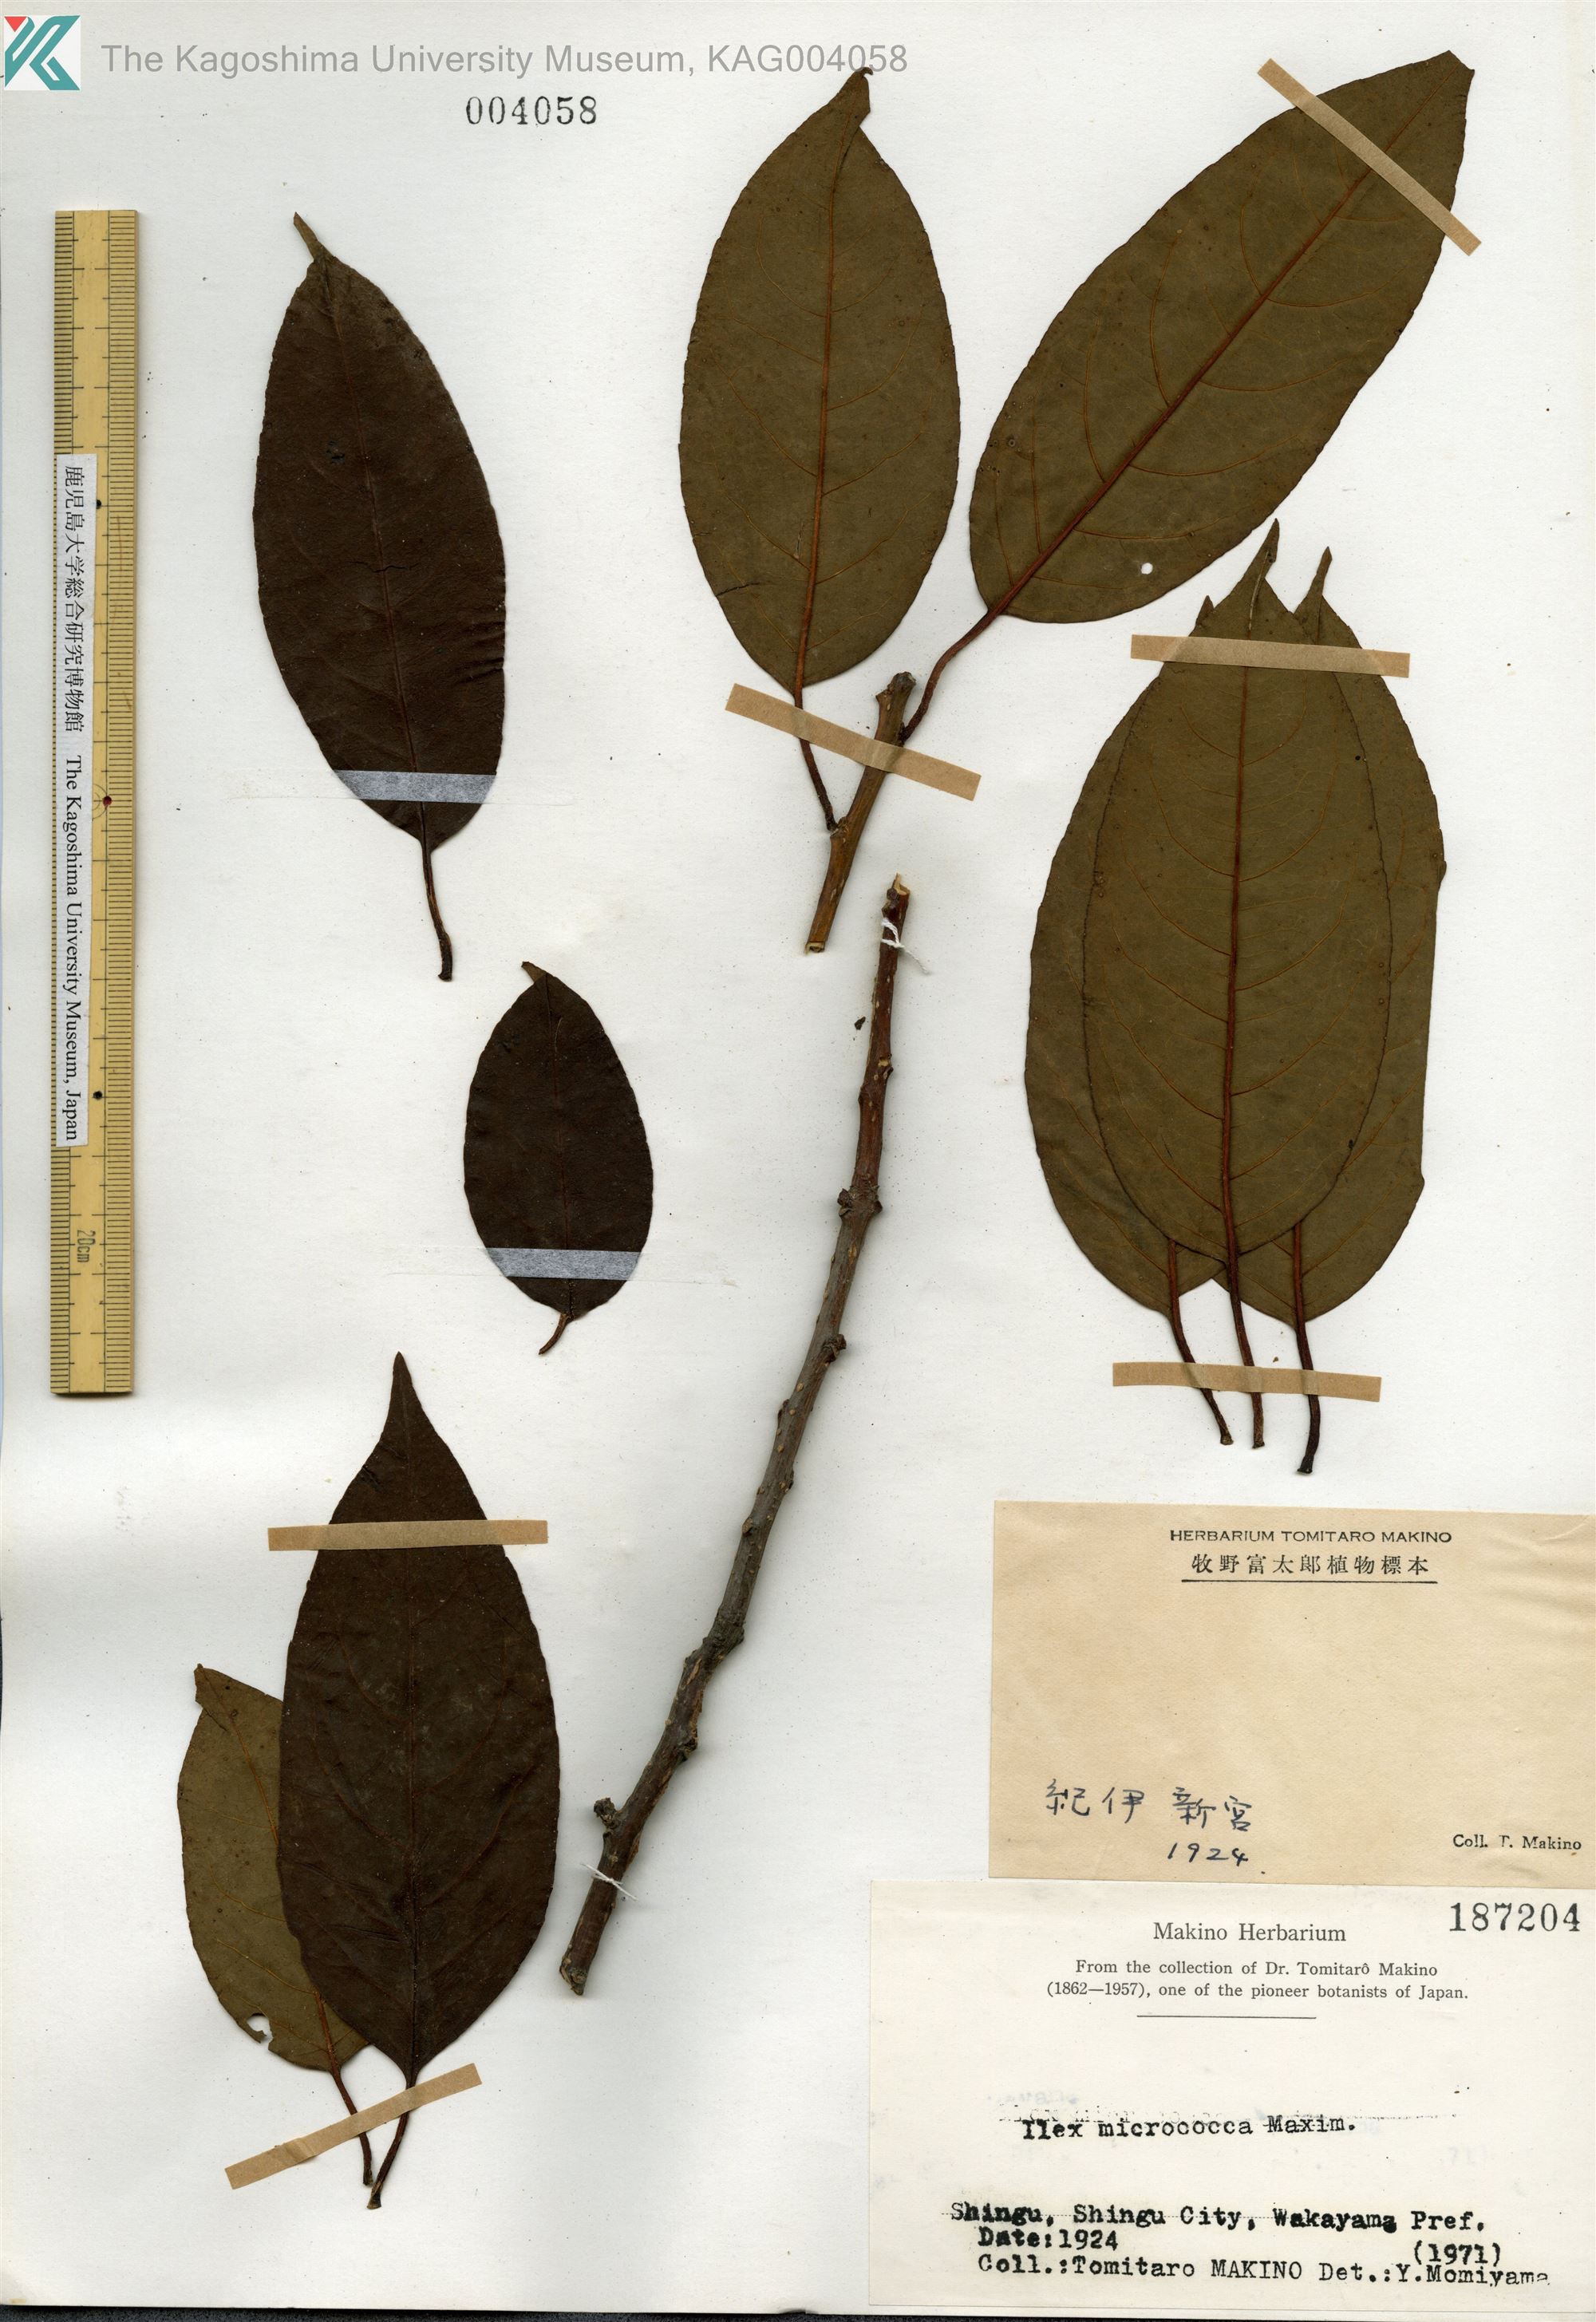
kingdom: Plantae
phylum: Tracheophyta
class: Magnoliopsida
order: Aquifoliales
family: Aquifoliaceae
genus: Ilex
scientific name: Ilex rotunda
